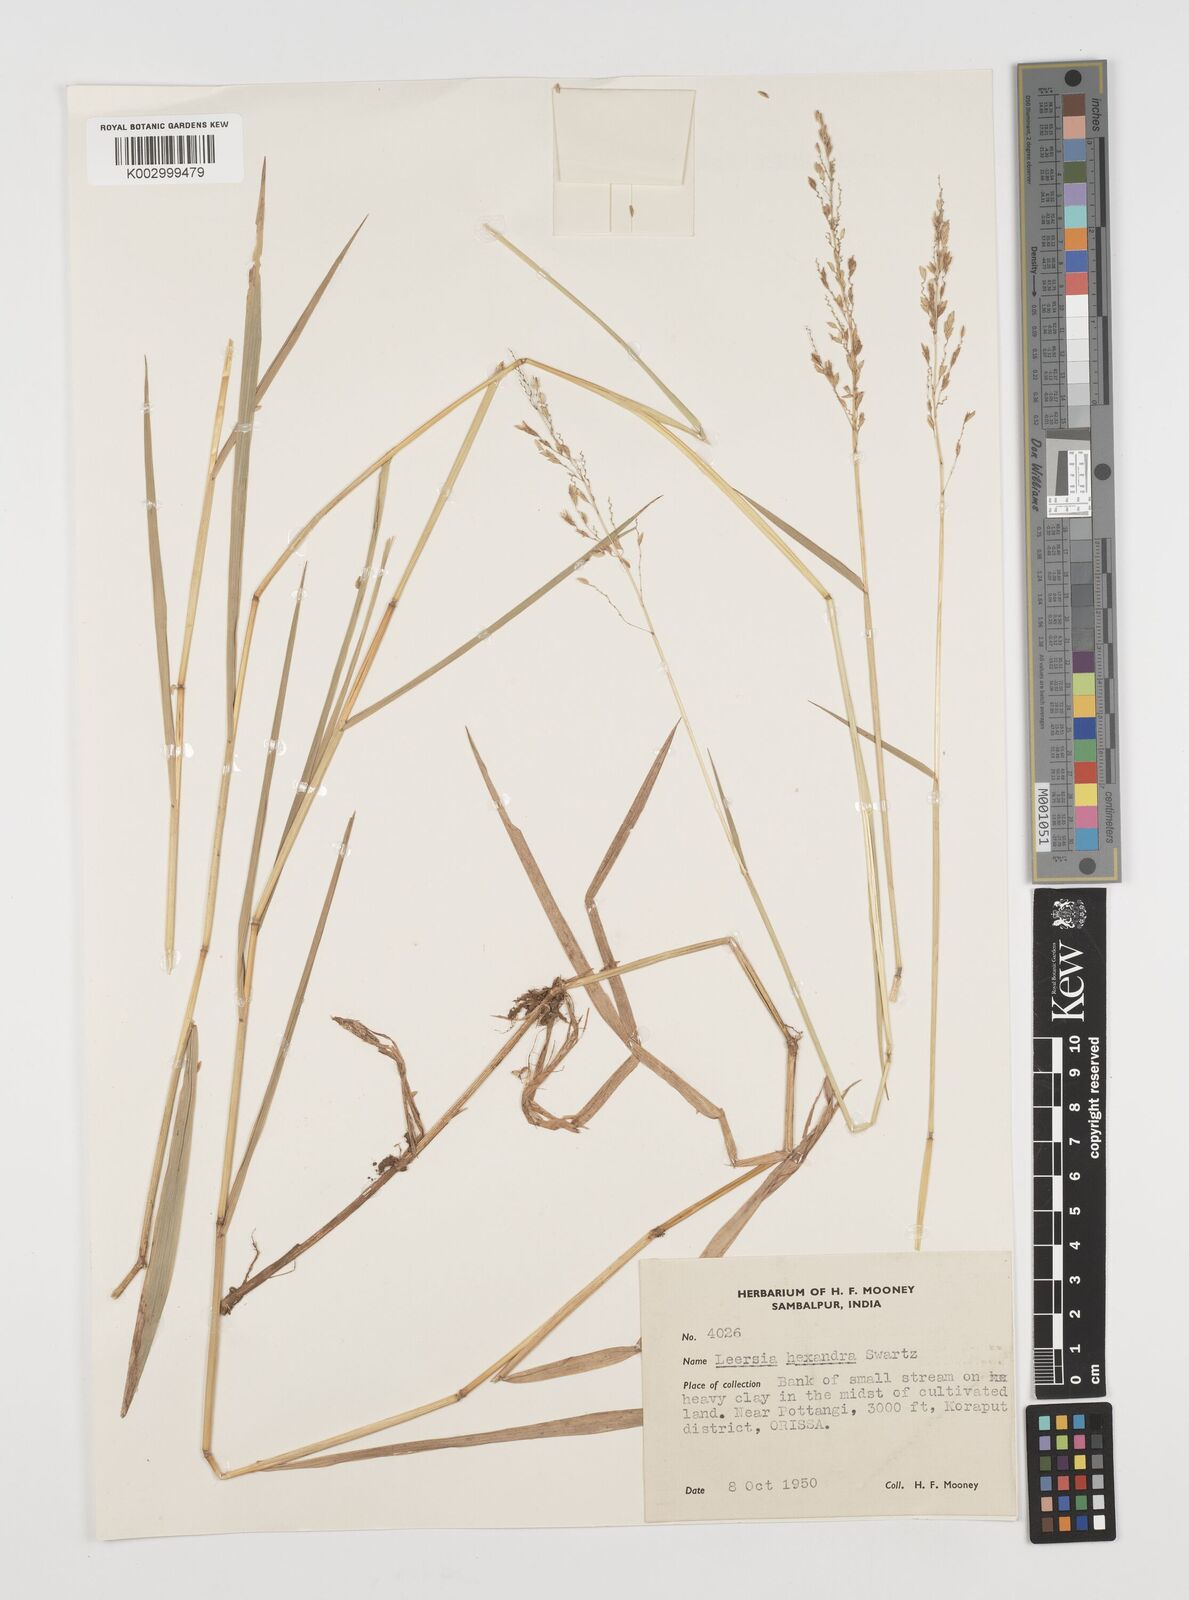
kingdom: Plantae
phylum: Tracheophyta
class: Liliopsida
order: Poales
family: Poaceae
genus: Leersia
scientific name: Leersia hexandra
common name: Southern cut grass
